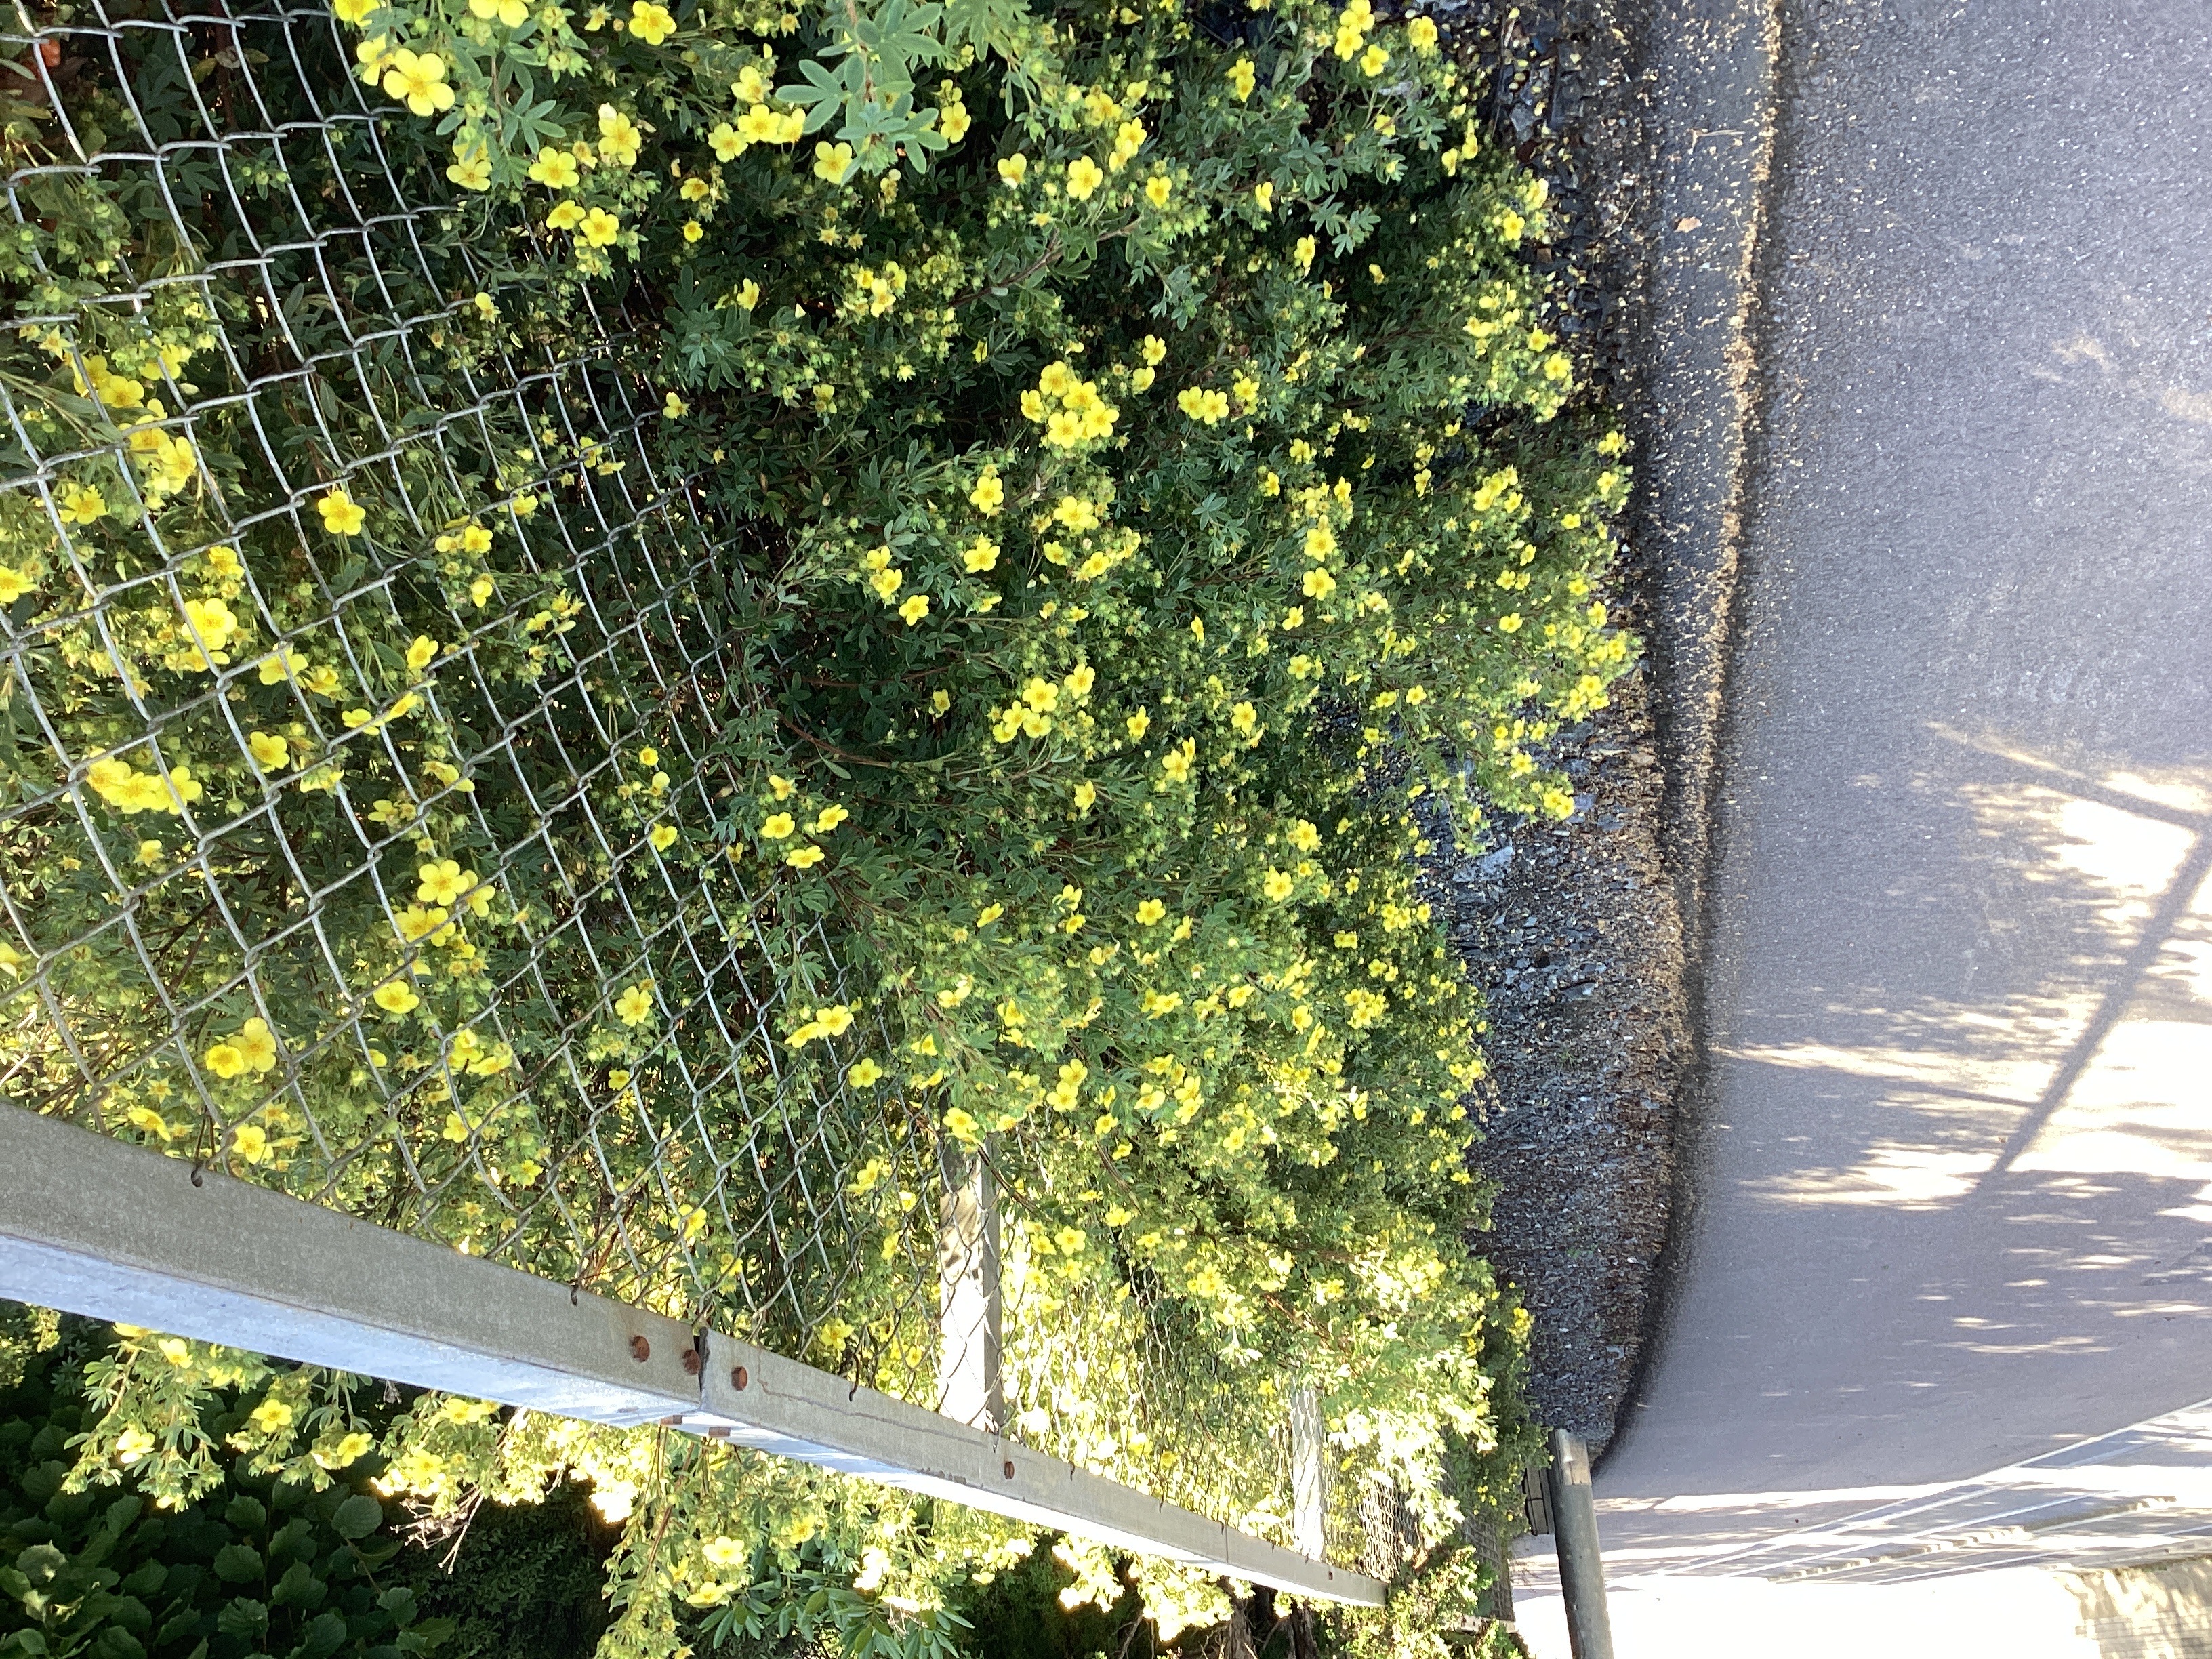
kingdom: Plantae
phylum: Tracheophyta
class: Magnoliopsida
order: Rosales
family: Rosaceae
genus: Dasiphora
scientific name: Dasiphora fruticosa
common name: buskmure
